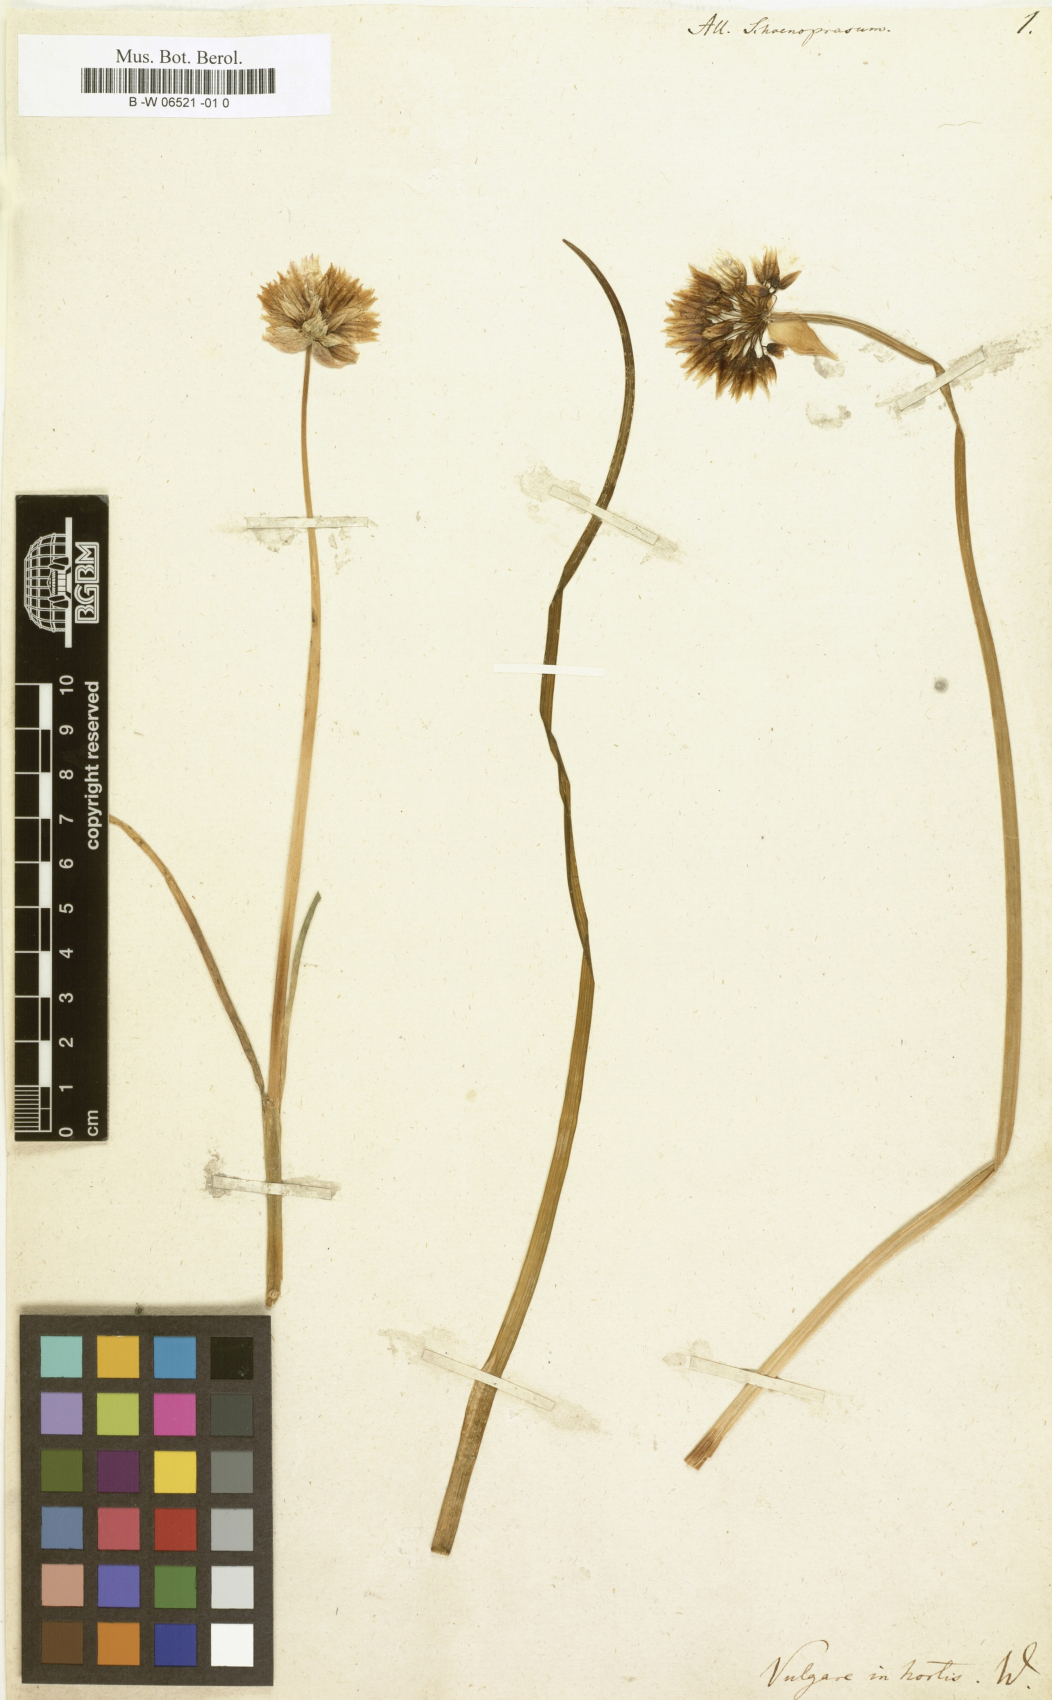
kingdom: Plantae
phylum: Tracheophyta
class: Liliopsida
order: Asparagales
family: Amaryllidaceae
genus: Allium
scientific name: Allium schoenoprasum
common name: Chives
